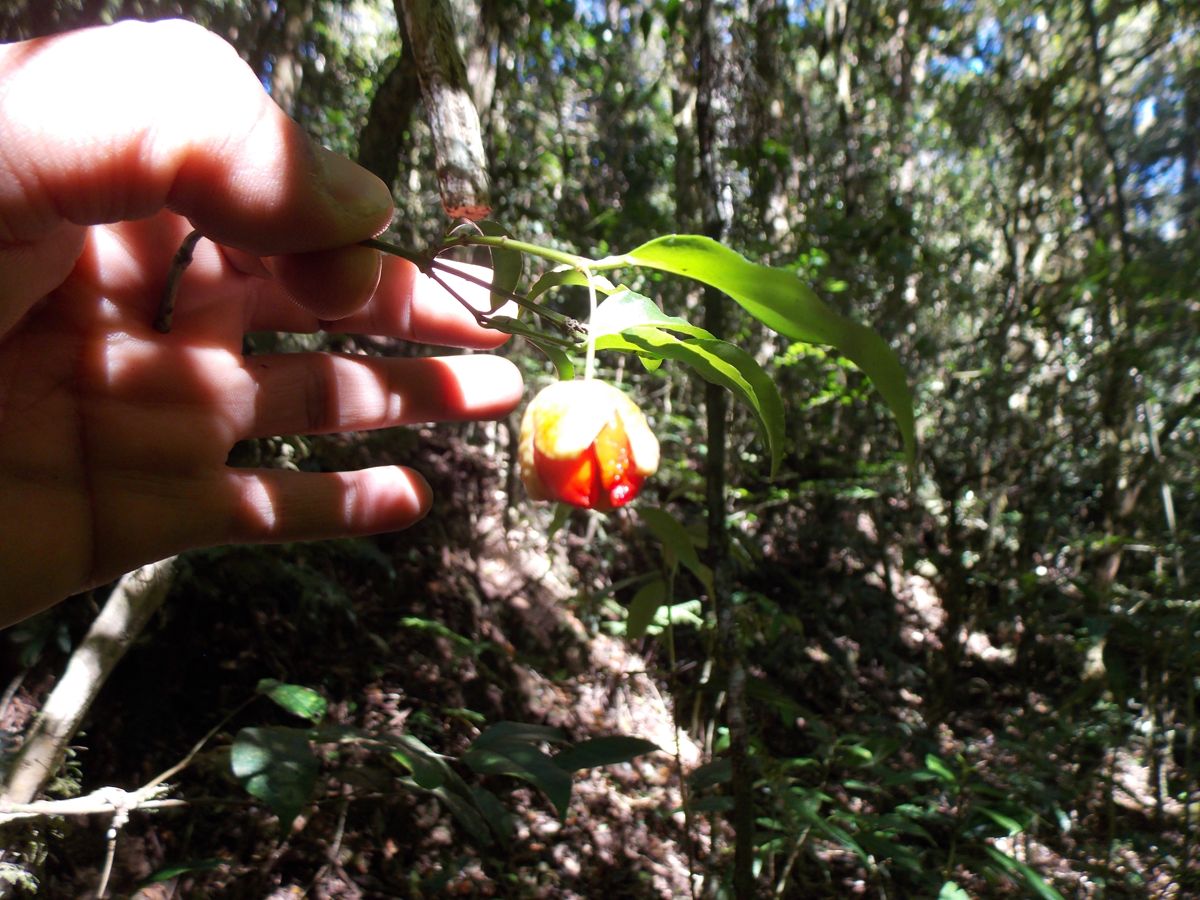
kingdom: Plantae
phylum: Tracheophyta
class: Magnoliopsida
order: Celastrales
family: Celastraceae
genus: Euonymus
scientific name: Euonymus enantiophyllus
